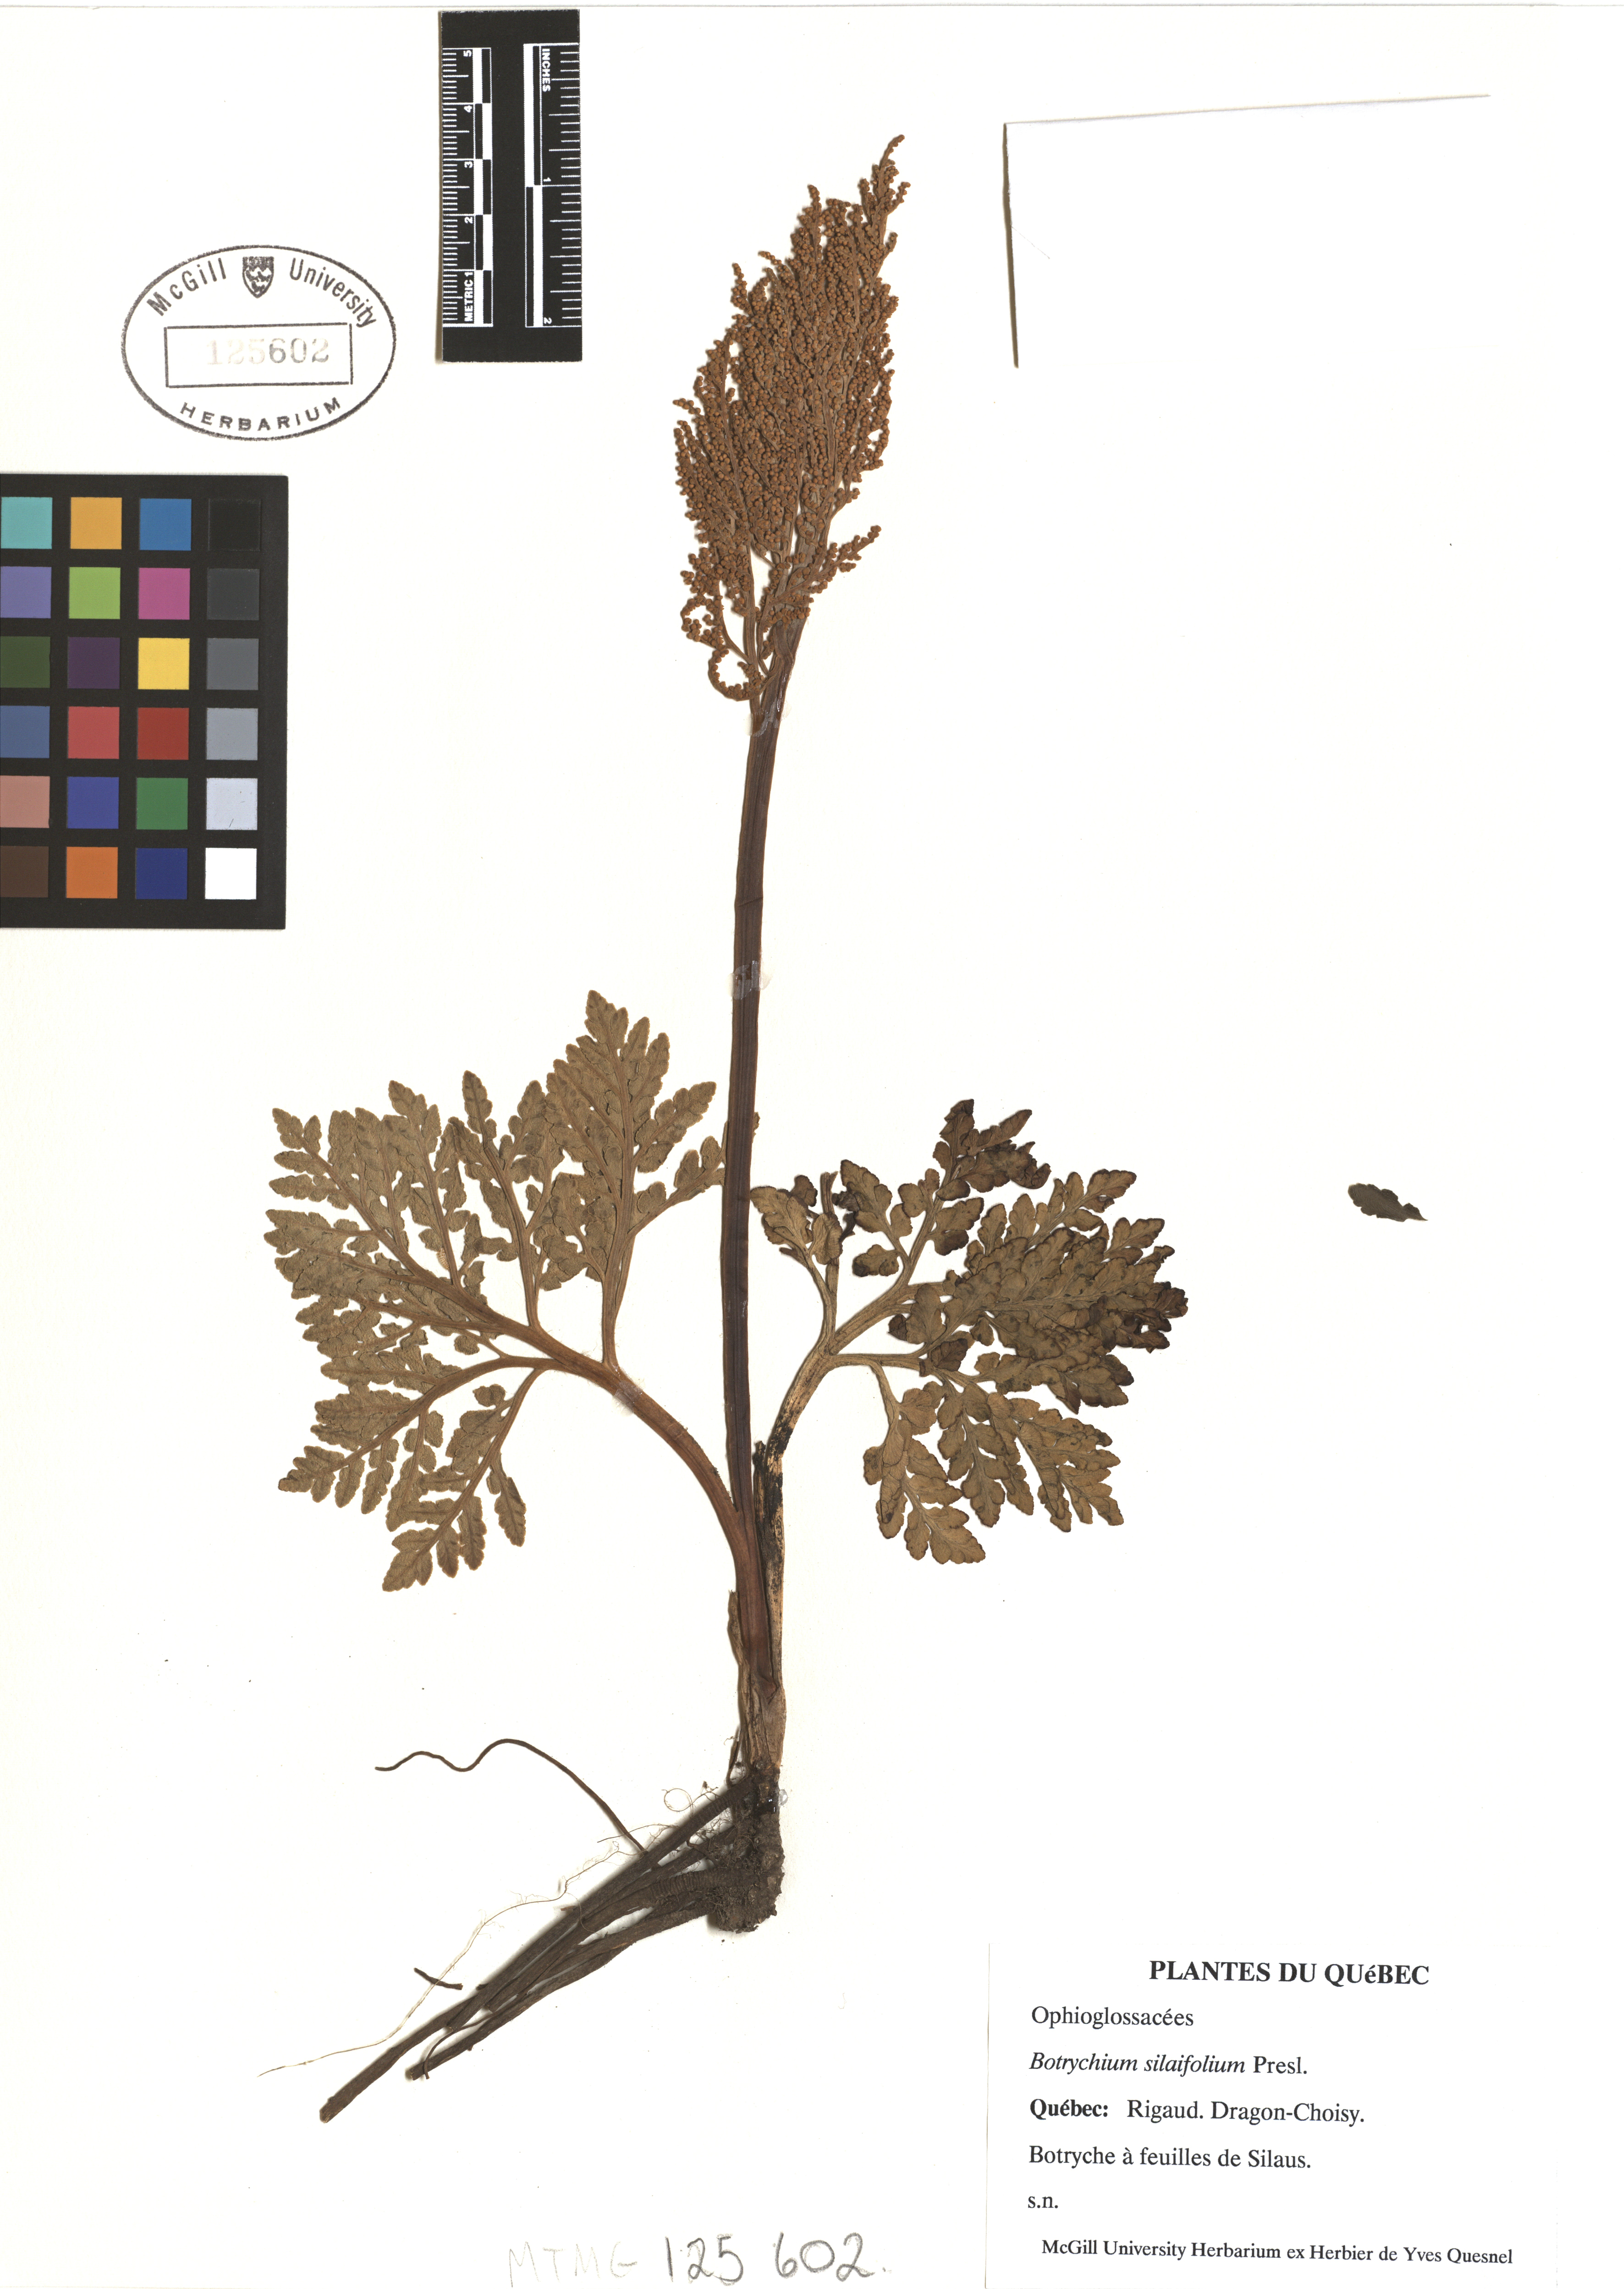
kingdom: Plantae
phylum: Tracheophyta
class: Polypodiopsida
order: Ophioglossales
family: Ophioglossaceae
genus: Sceptridium
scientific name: Sceptridium multifidum
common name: Leathery grape fern
